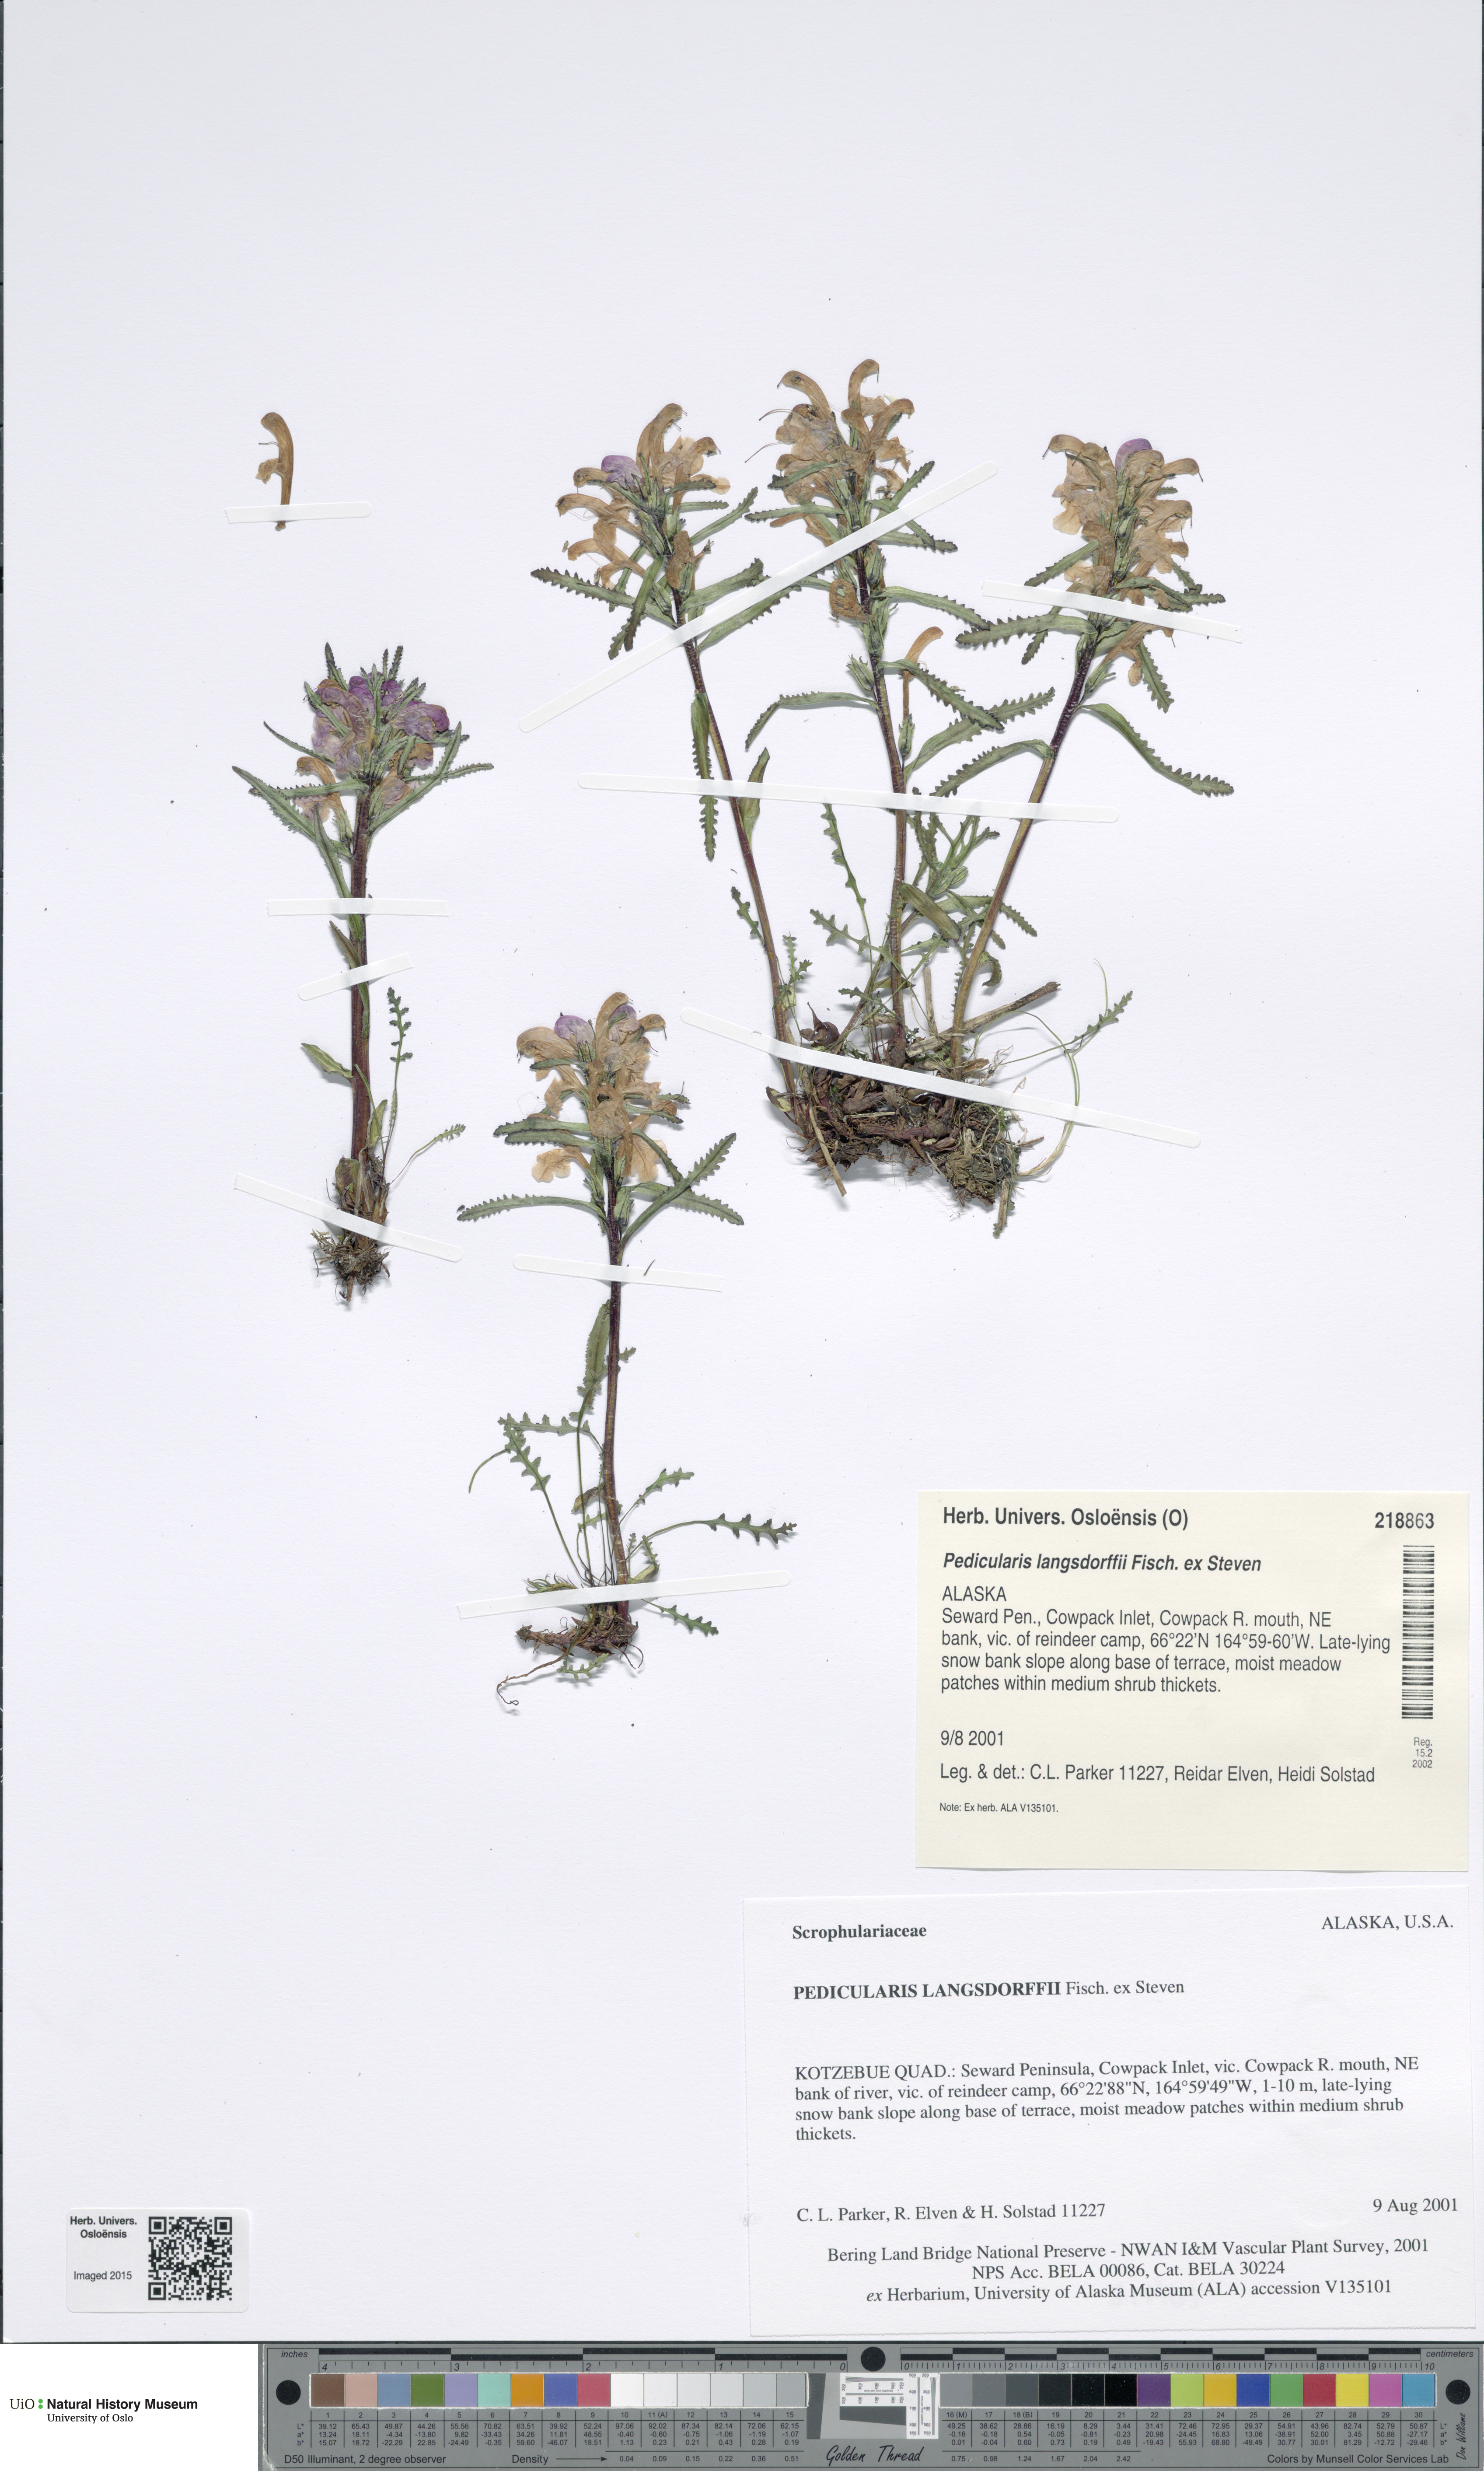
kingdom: Plantae
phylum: Tracheophyta
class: Magnoliopsida
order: Lamiales
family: Orobanchaceae
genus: Pedicularis
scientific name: Pedicularis langsdorffii
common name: Langsdorff's lousewort
